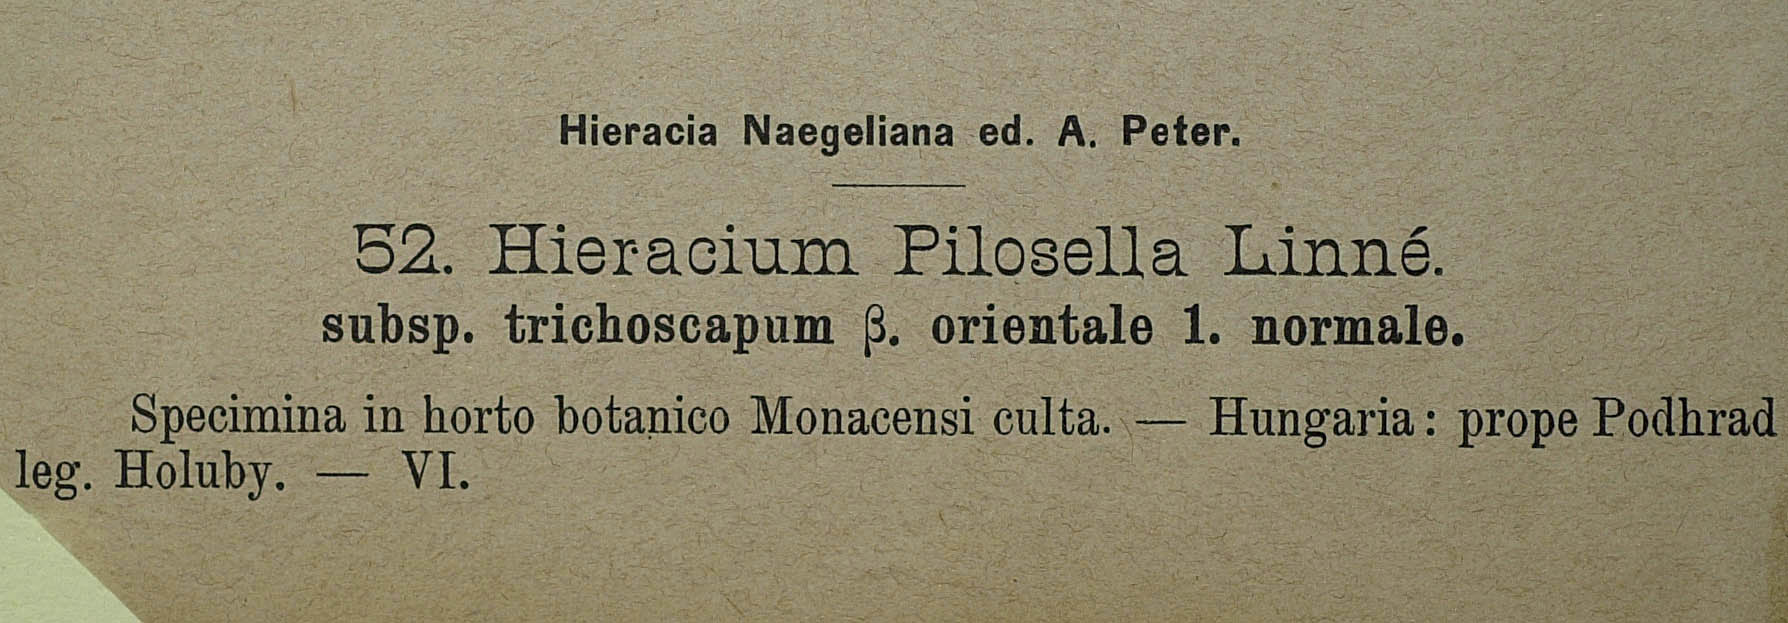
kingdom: Plantae
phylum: Tracheophyta
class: Magnoliopsida
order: Asterales
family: Asteraceae
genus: Pilosella
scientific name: Pilosella officinarum
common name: Mouse-ear hawkweed
